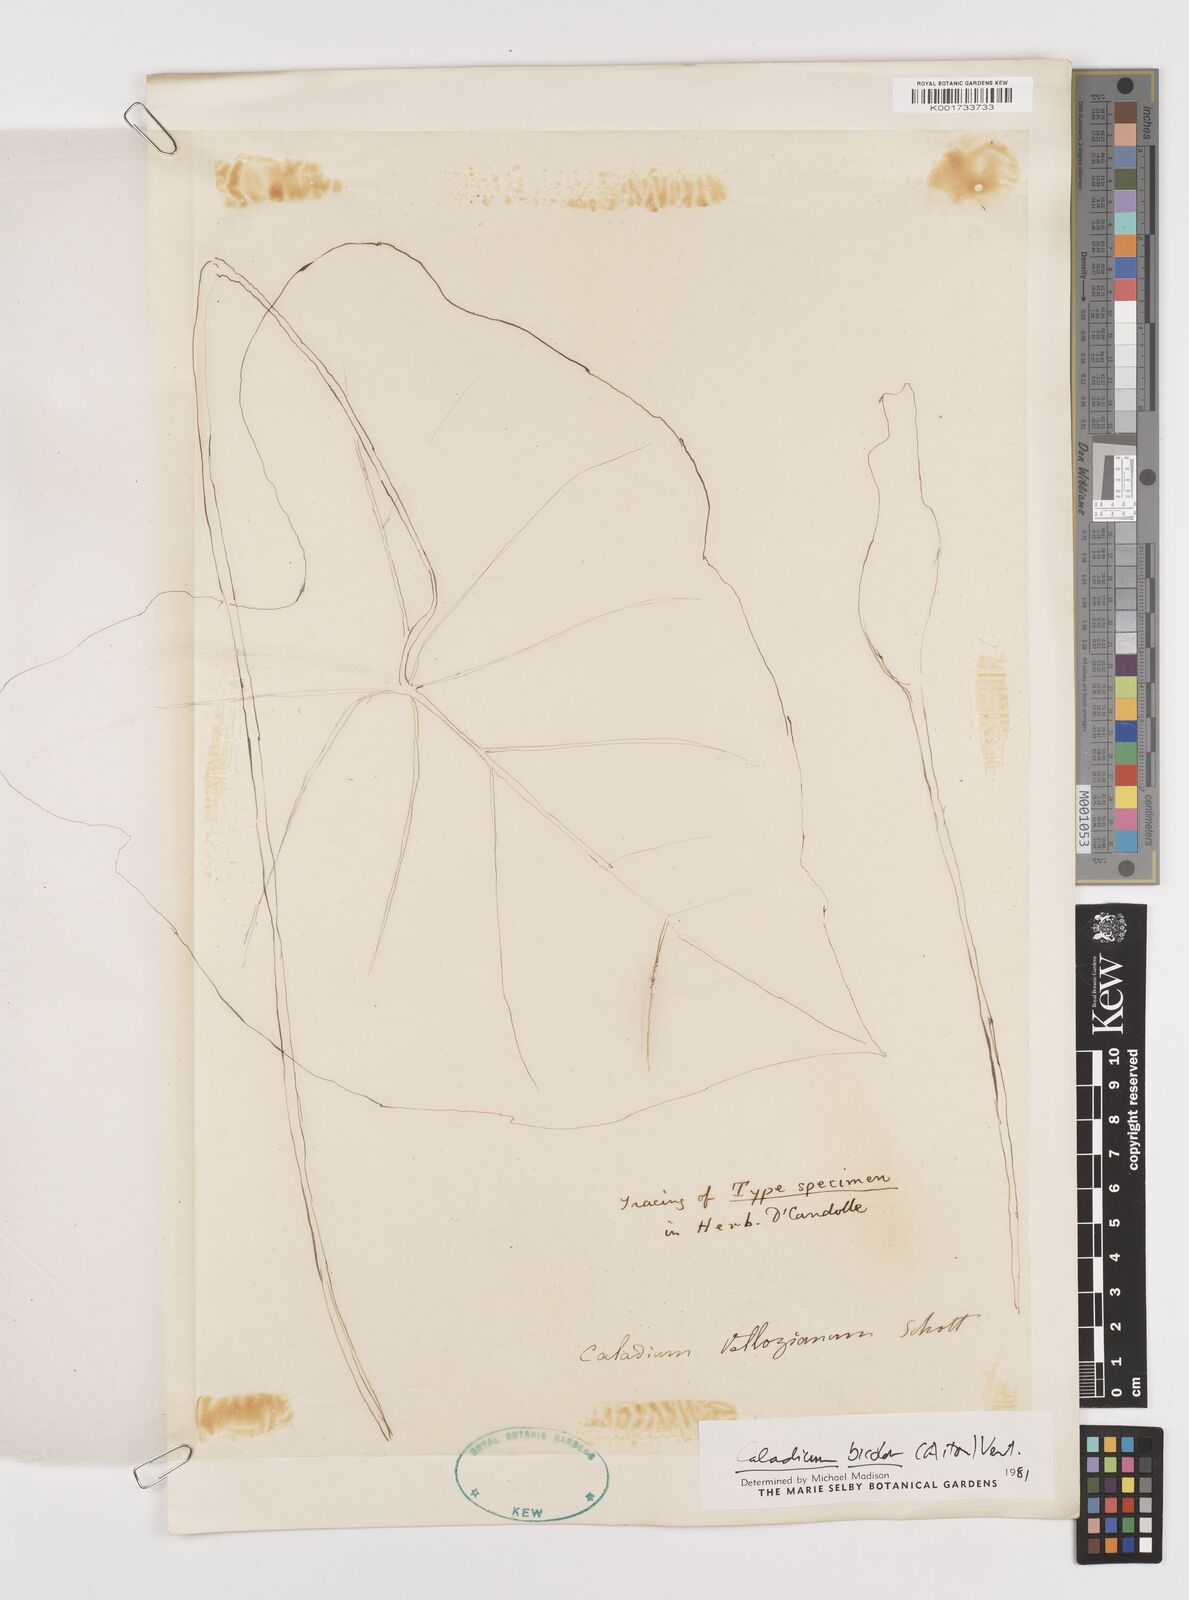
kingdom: Plantae
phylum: Tracheophyta
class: Liliopsida
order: Alismatales
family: Araceae
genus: Caladium
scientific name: Caladium bicolor
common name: Artist's pallet
